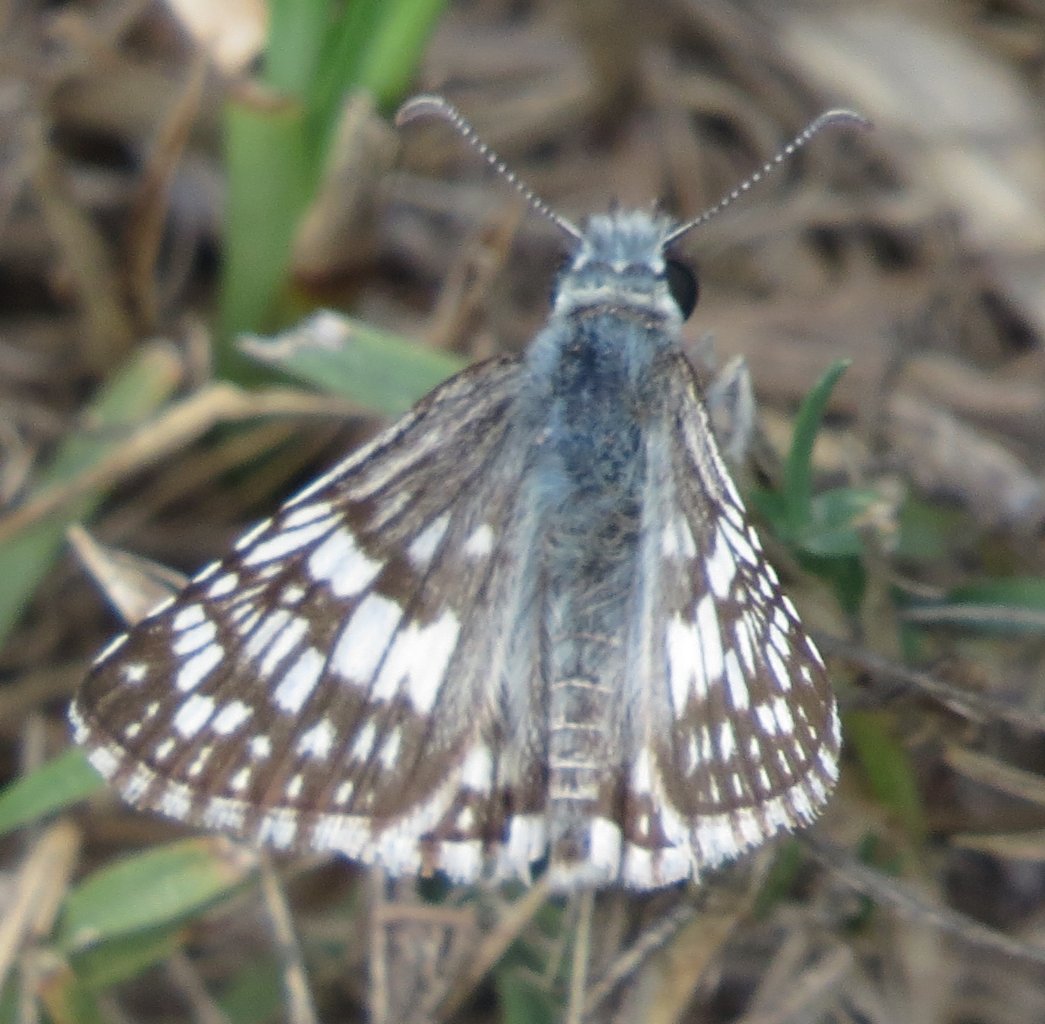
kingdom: Animalia
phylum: Arthropoda
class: Insecta
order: Lepidoptera
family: Hesperiidae
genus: Pyrgus
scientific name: Pyrgus communis
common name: White Checkered-Skipper
